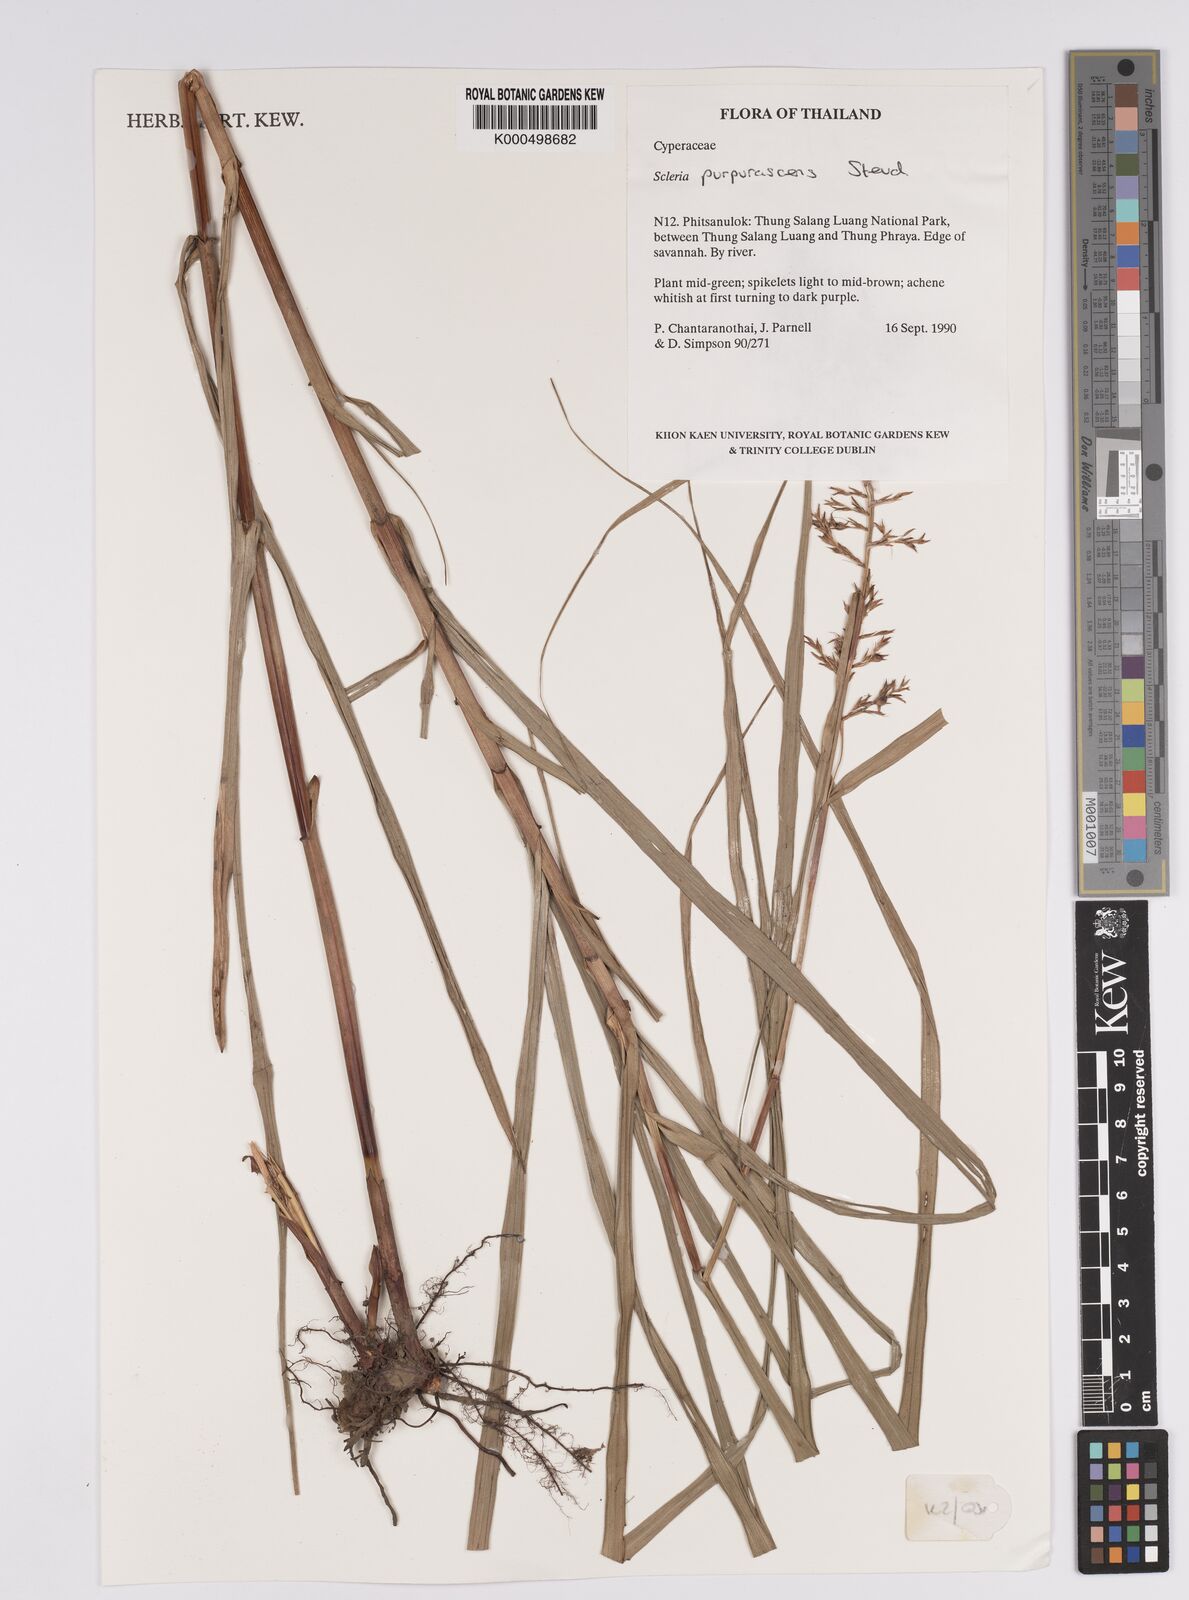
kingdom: Plantae
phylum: Tracheophyta
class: Liliopsida
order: Poales
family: Cyperaceae
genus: Scleria
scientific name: Scleria purpurascens
